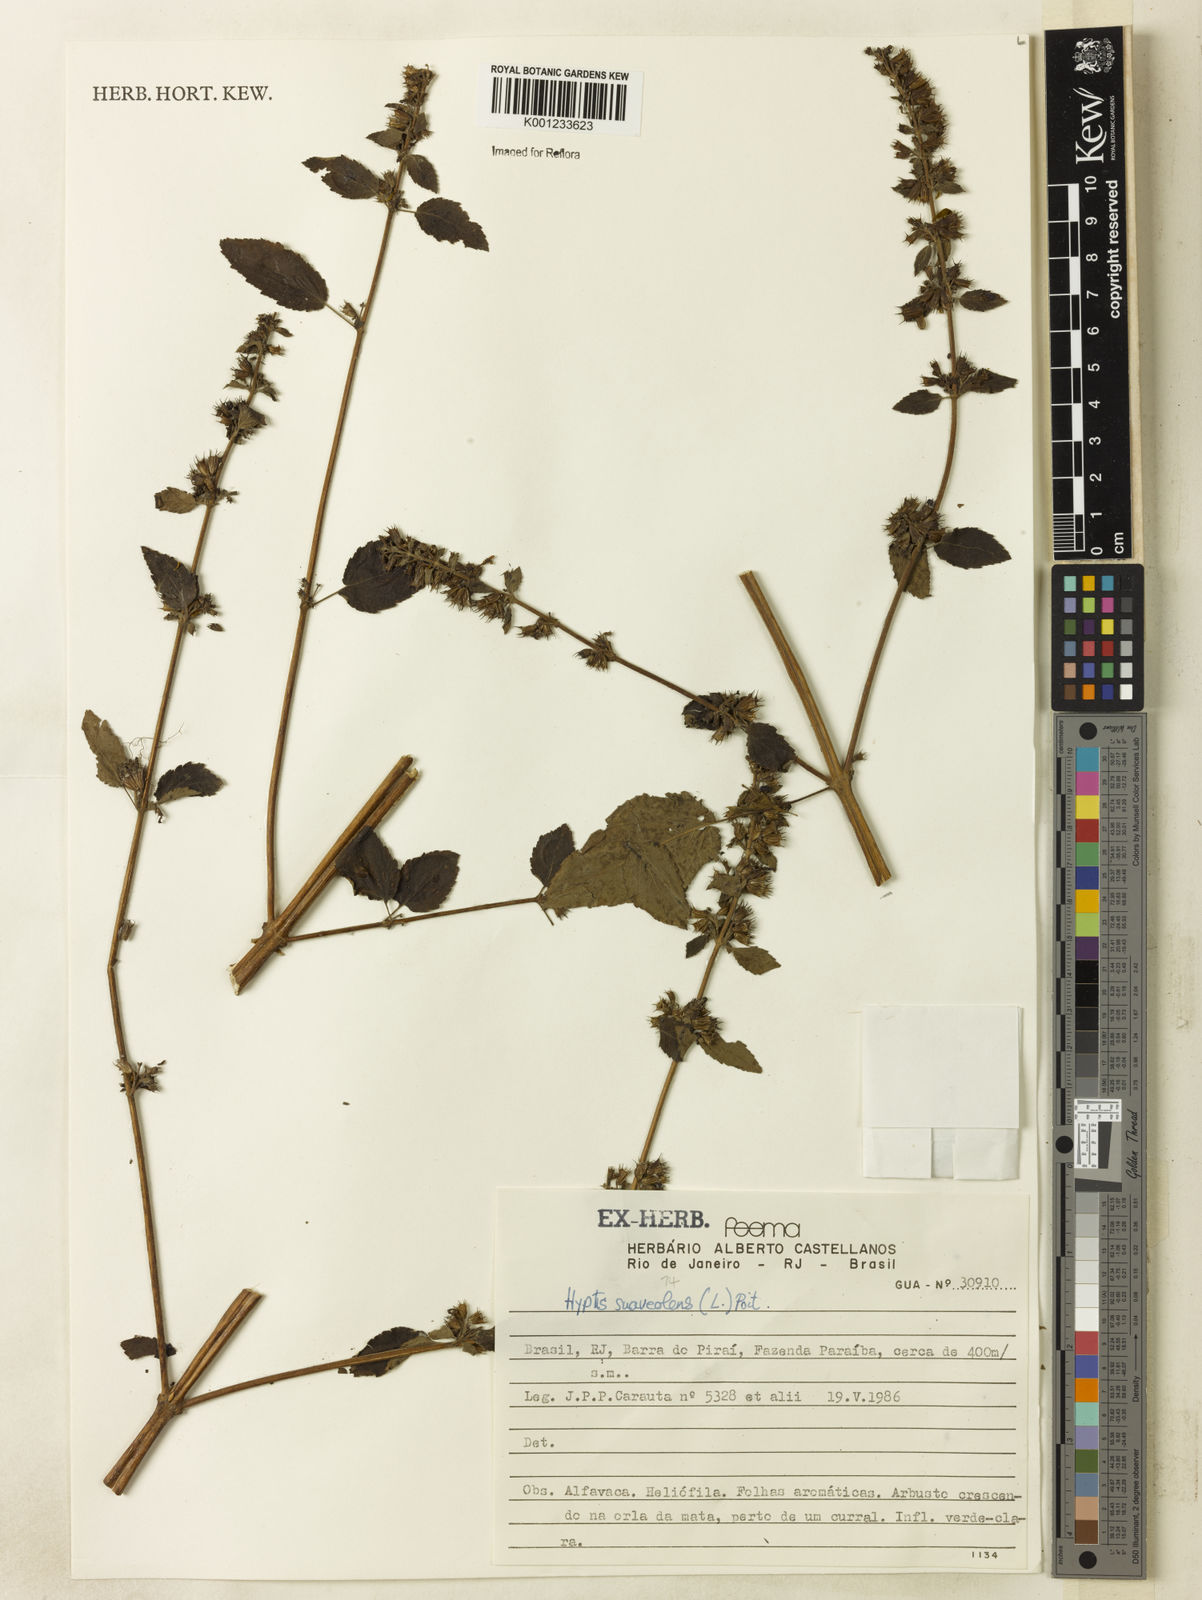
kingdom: Plantae
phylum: Tracheophyta
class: Magnoliopsida
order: Lamiales
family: Lamiaceae
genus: Mesosphaerum
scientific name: Mesosphaerum suaveolens
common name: Pignut
